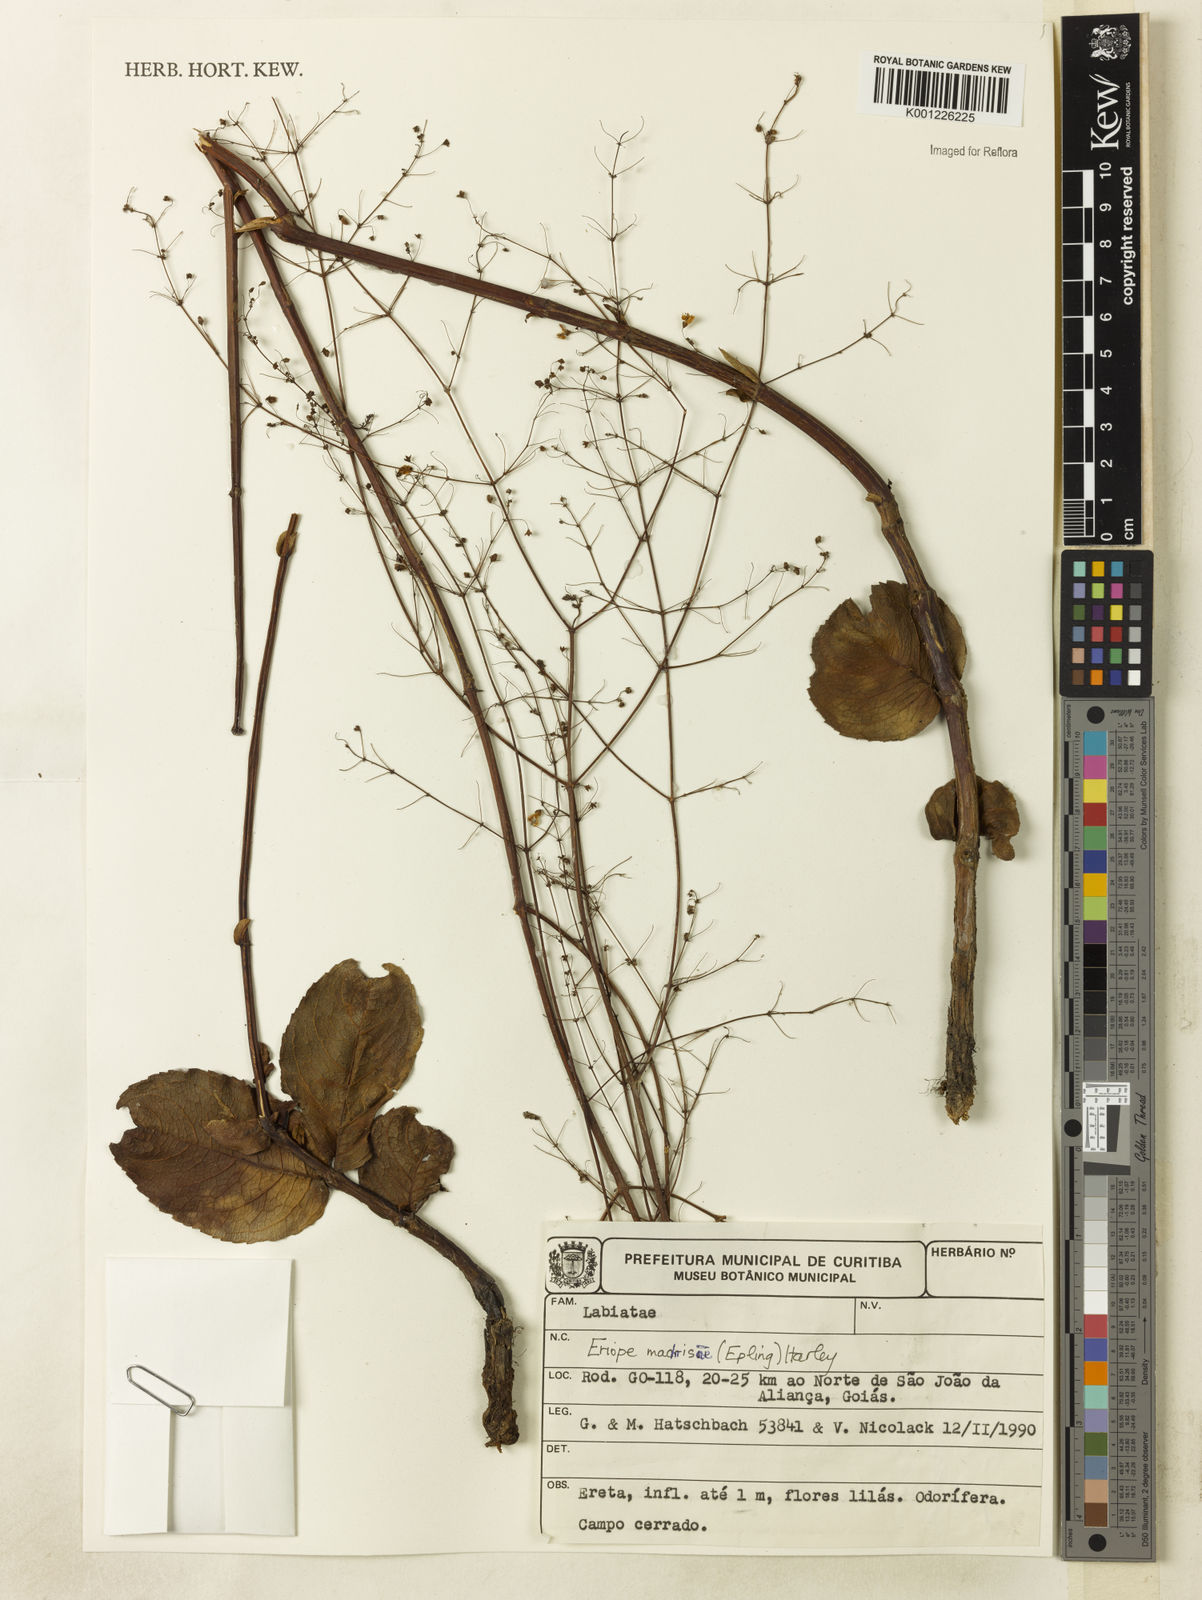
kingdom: Plantae
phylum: Tracheophyta
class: Magnoliopsida
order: Lamiales
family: Lamiaceae
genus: Eriope
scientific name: Eriope machrisae
